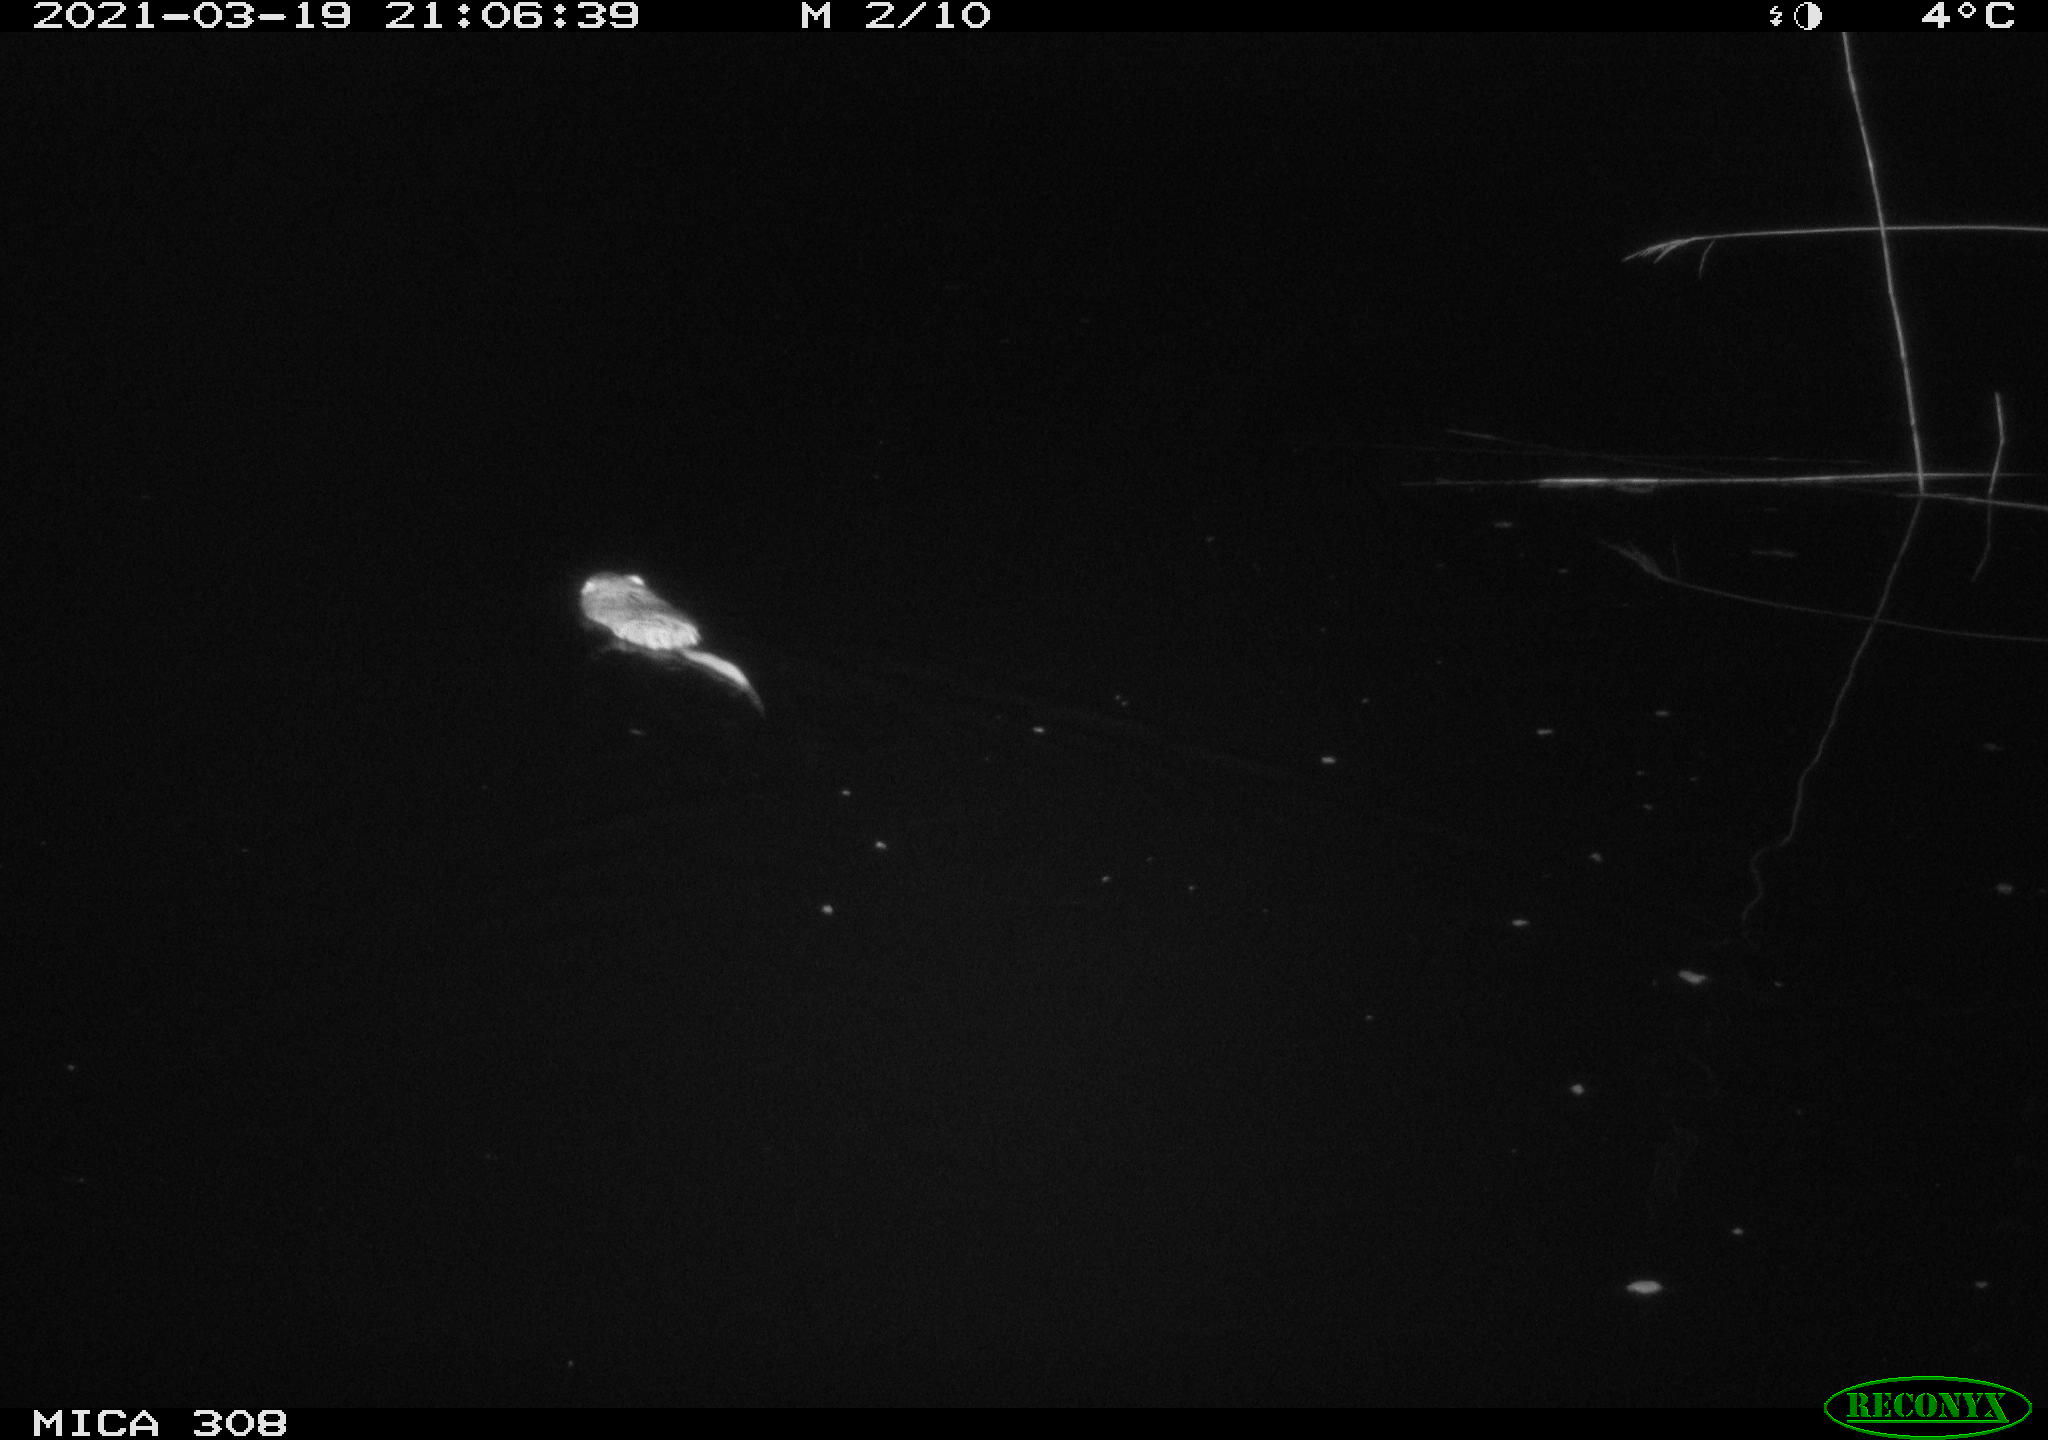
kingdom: Animalia
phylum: Chordata
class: Mammalia
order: Rodentia
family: Cricetidae
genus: Ondatra
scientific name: Ondatra zibethicus
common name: Muskrat
